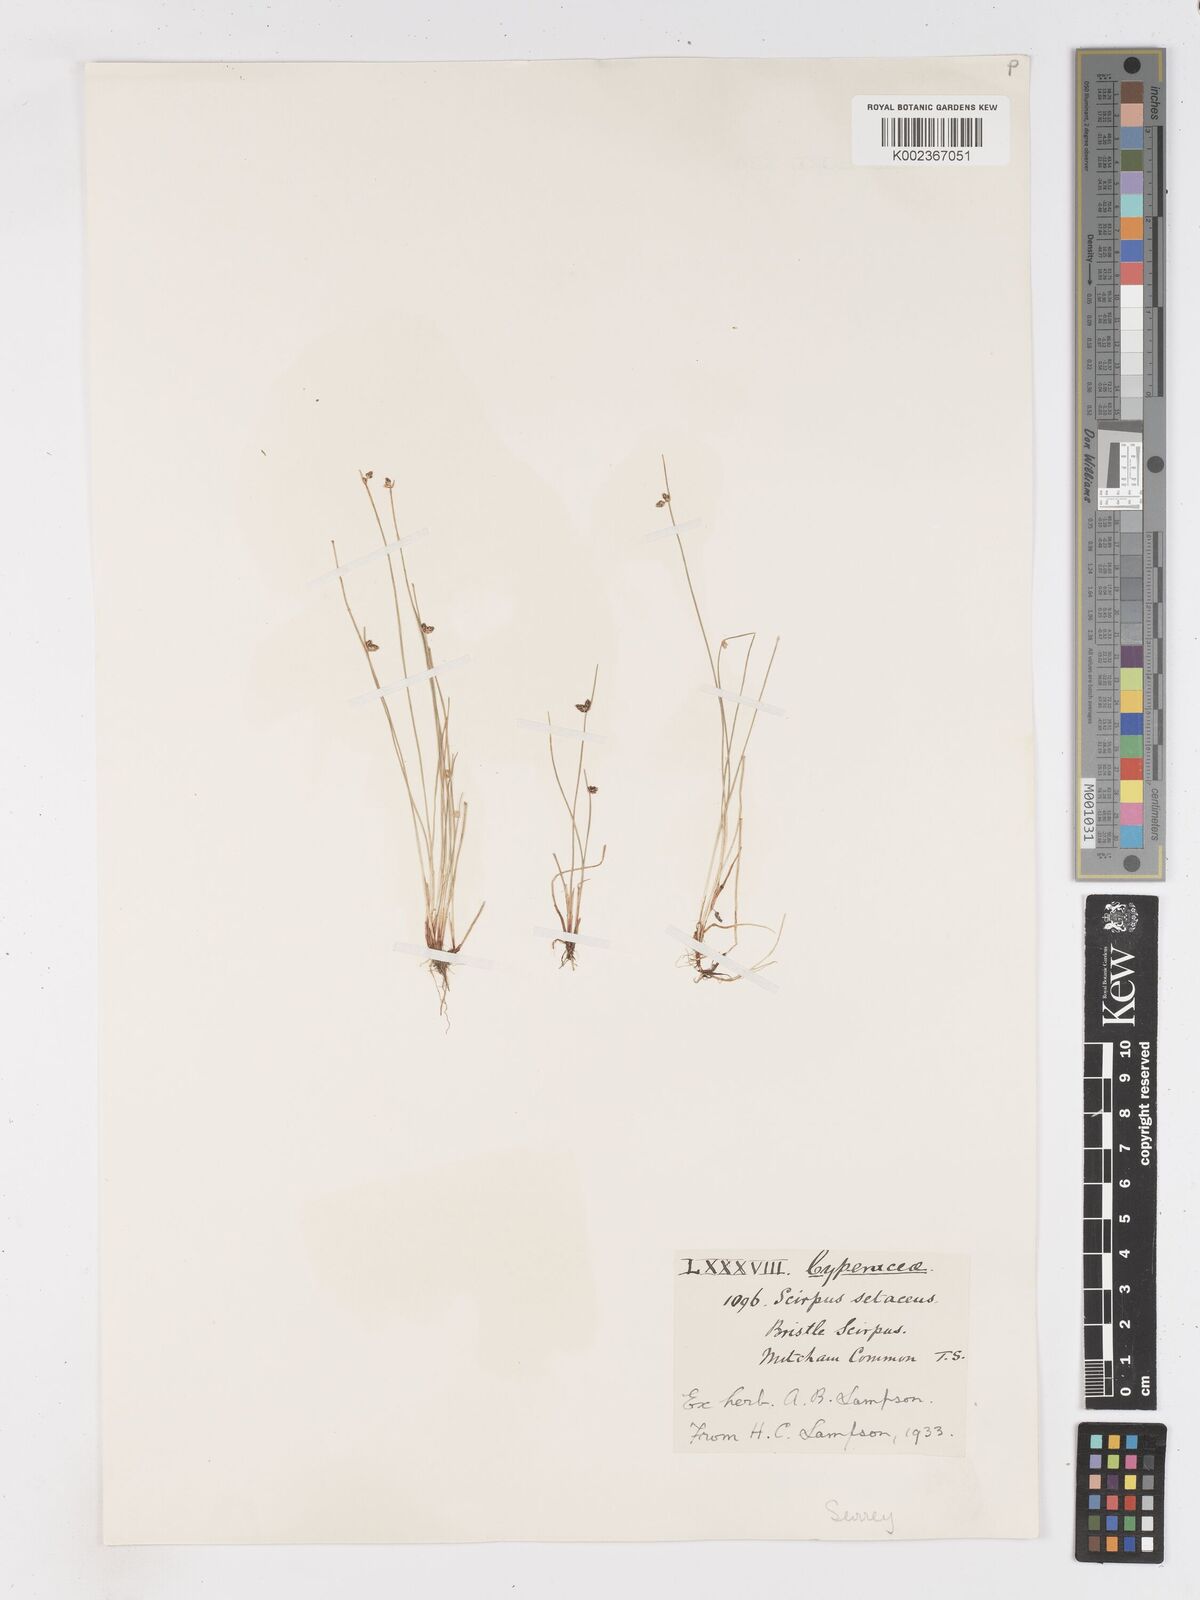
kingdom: Plantae
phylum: Tracheophyta
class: Liliopsida
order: Poales
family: Cyperaceae
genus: Isolepis
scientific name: Isolepis setacea
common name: Bristle club-rush
